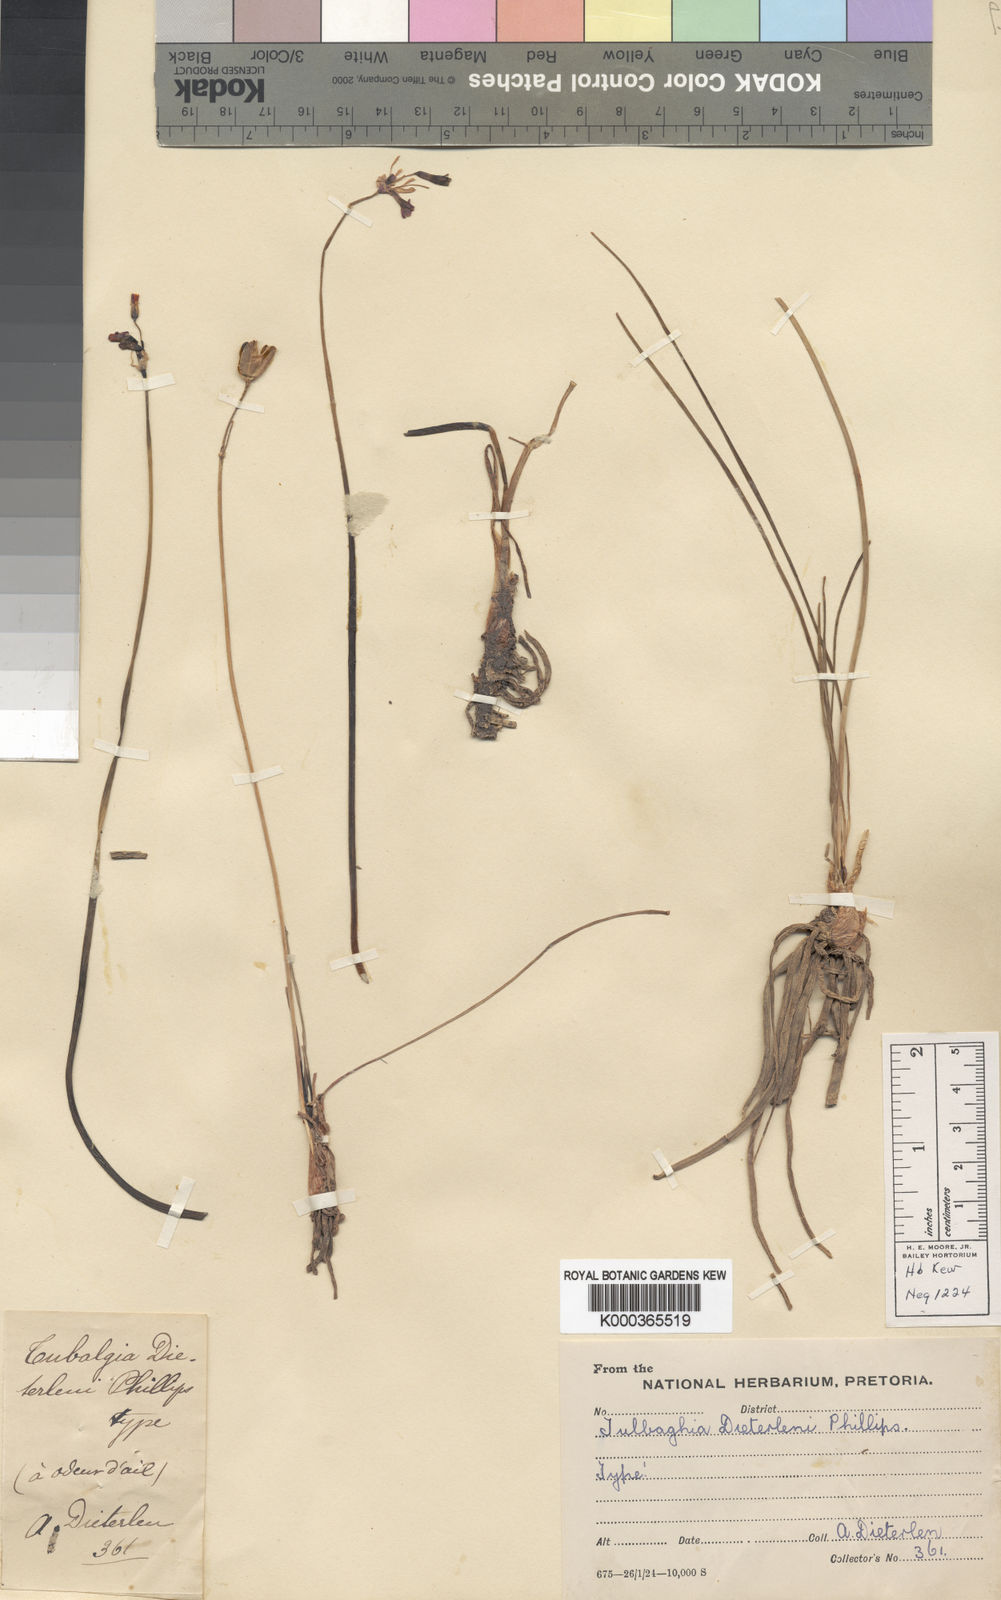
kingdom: Plantae
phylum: Tracheophyta
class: Liliopsida
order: Asparagales
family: Amaryllidaceae
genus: Tulbaghia
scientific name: Tulbaghia leucantha
